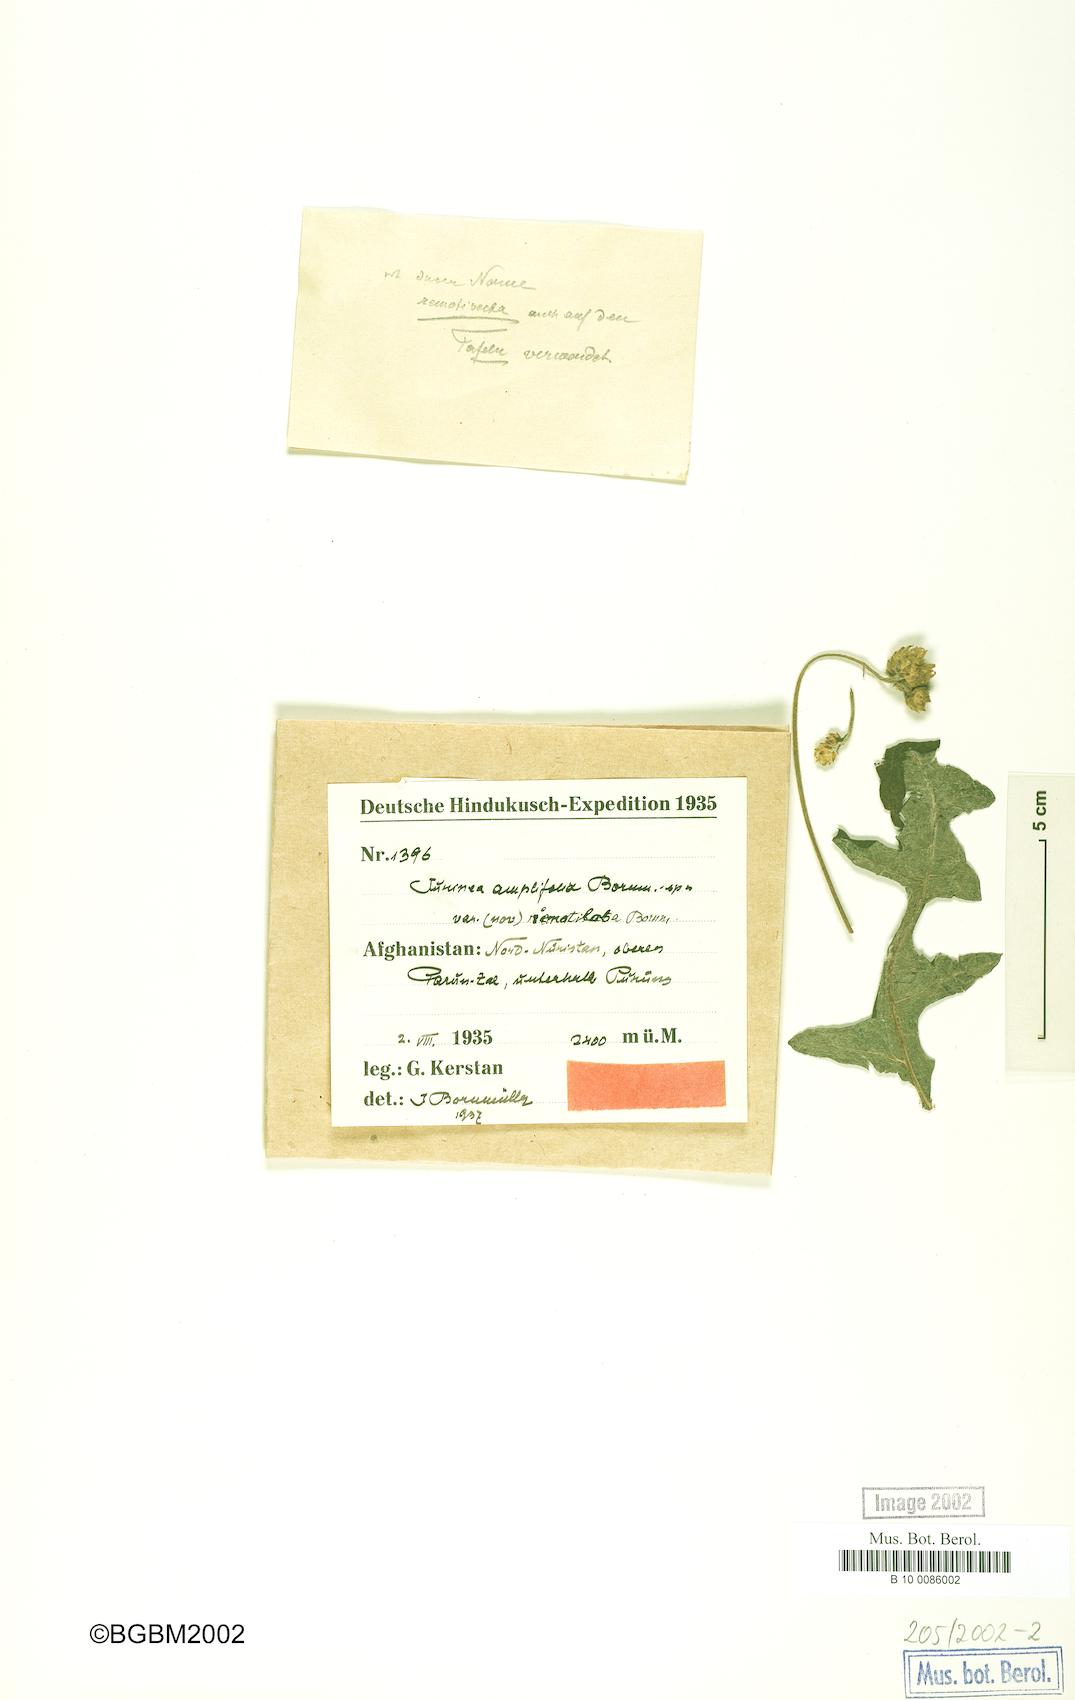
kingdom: Plantae
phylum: Tracheophyta
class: Magnoliopsida
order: Asterales
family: Asteraceae
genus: Saussurea
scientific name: Saussurea afghana
